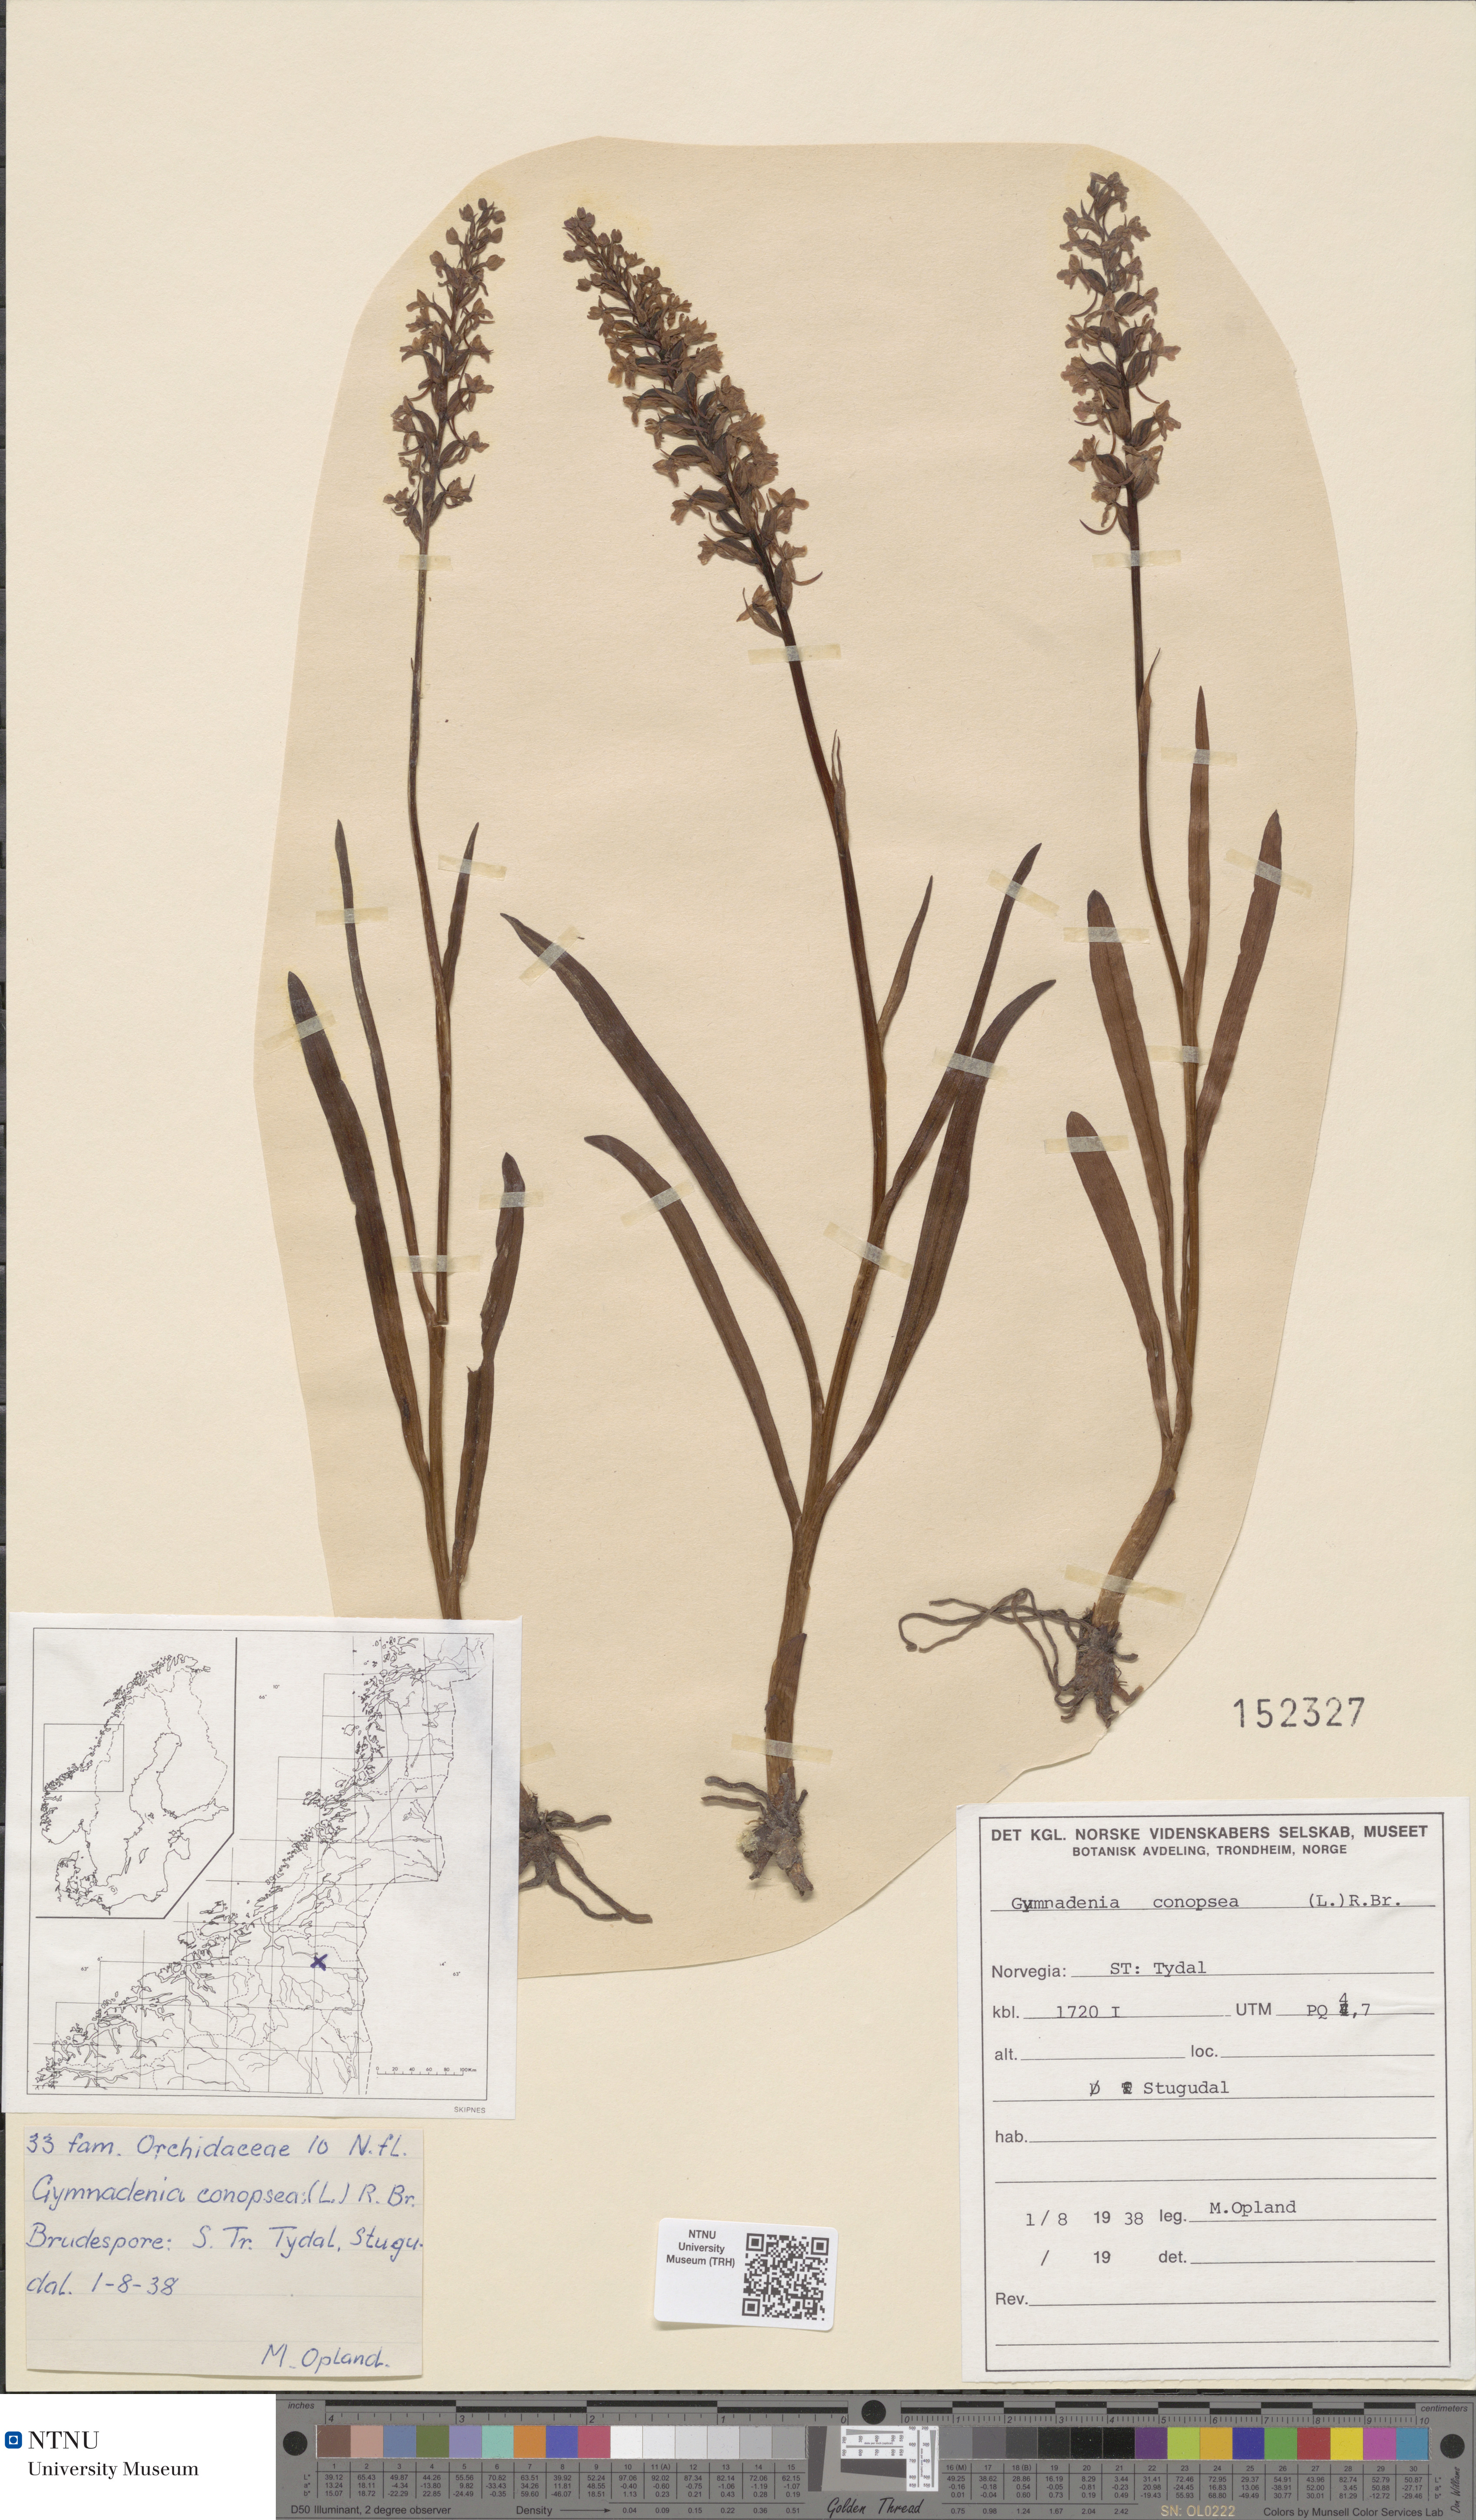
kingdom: Plantae
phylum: Tracheophyta
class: Liliopsida
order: Asparagales
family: Orchidaceae
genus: Gymnadenia
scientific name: Gymnadenia conopsea
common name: Fragrant orchid
